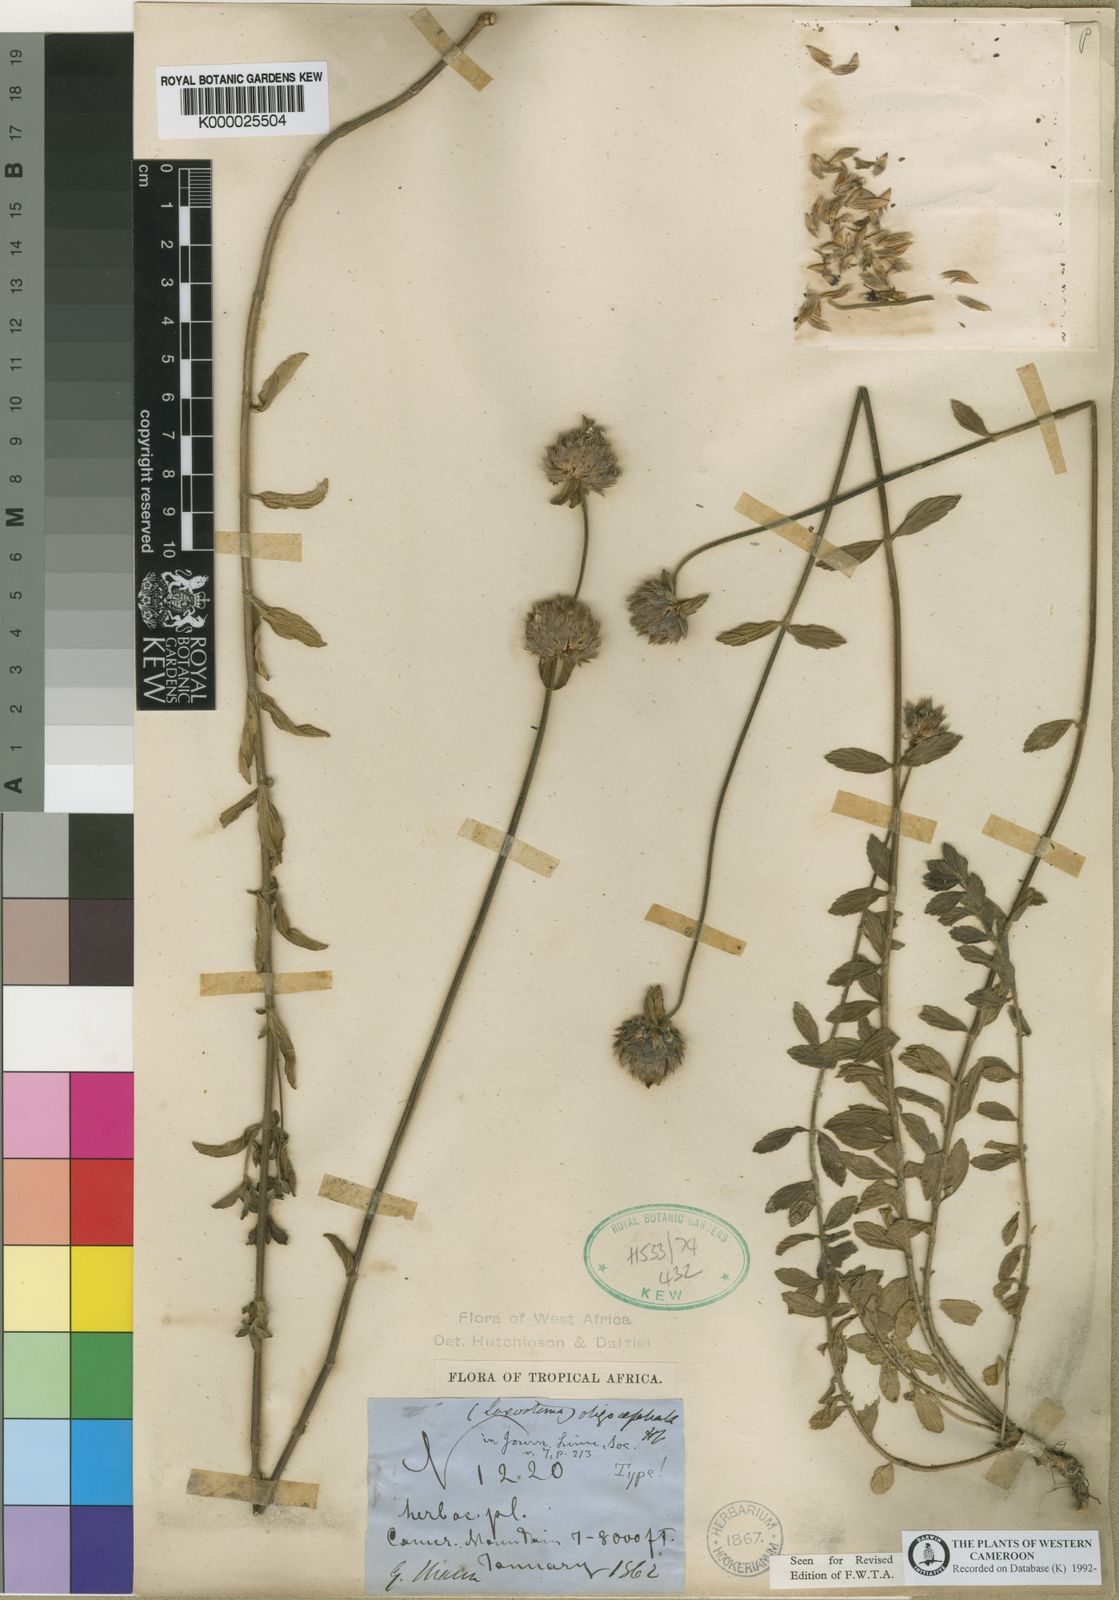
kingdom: Plantae
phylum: Tracheophyta
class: Magnoliopsida
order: Lamiales
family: Lamiaceae
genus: Leucas
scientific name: Leucas oligocephala
